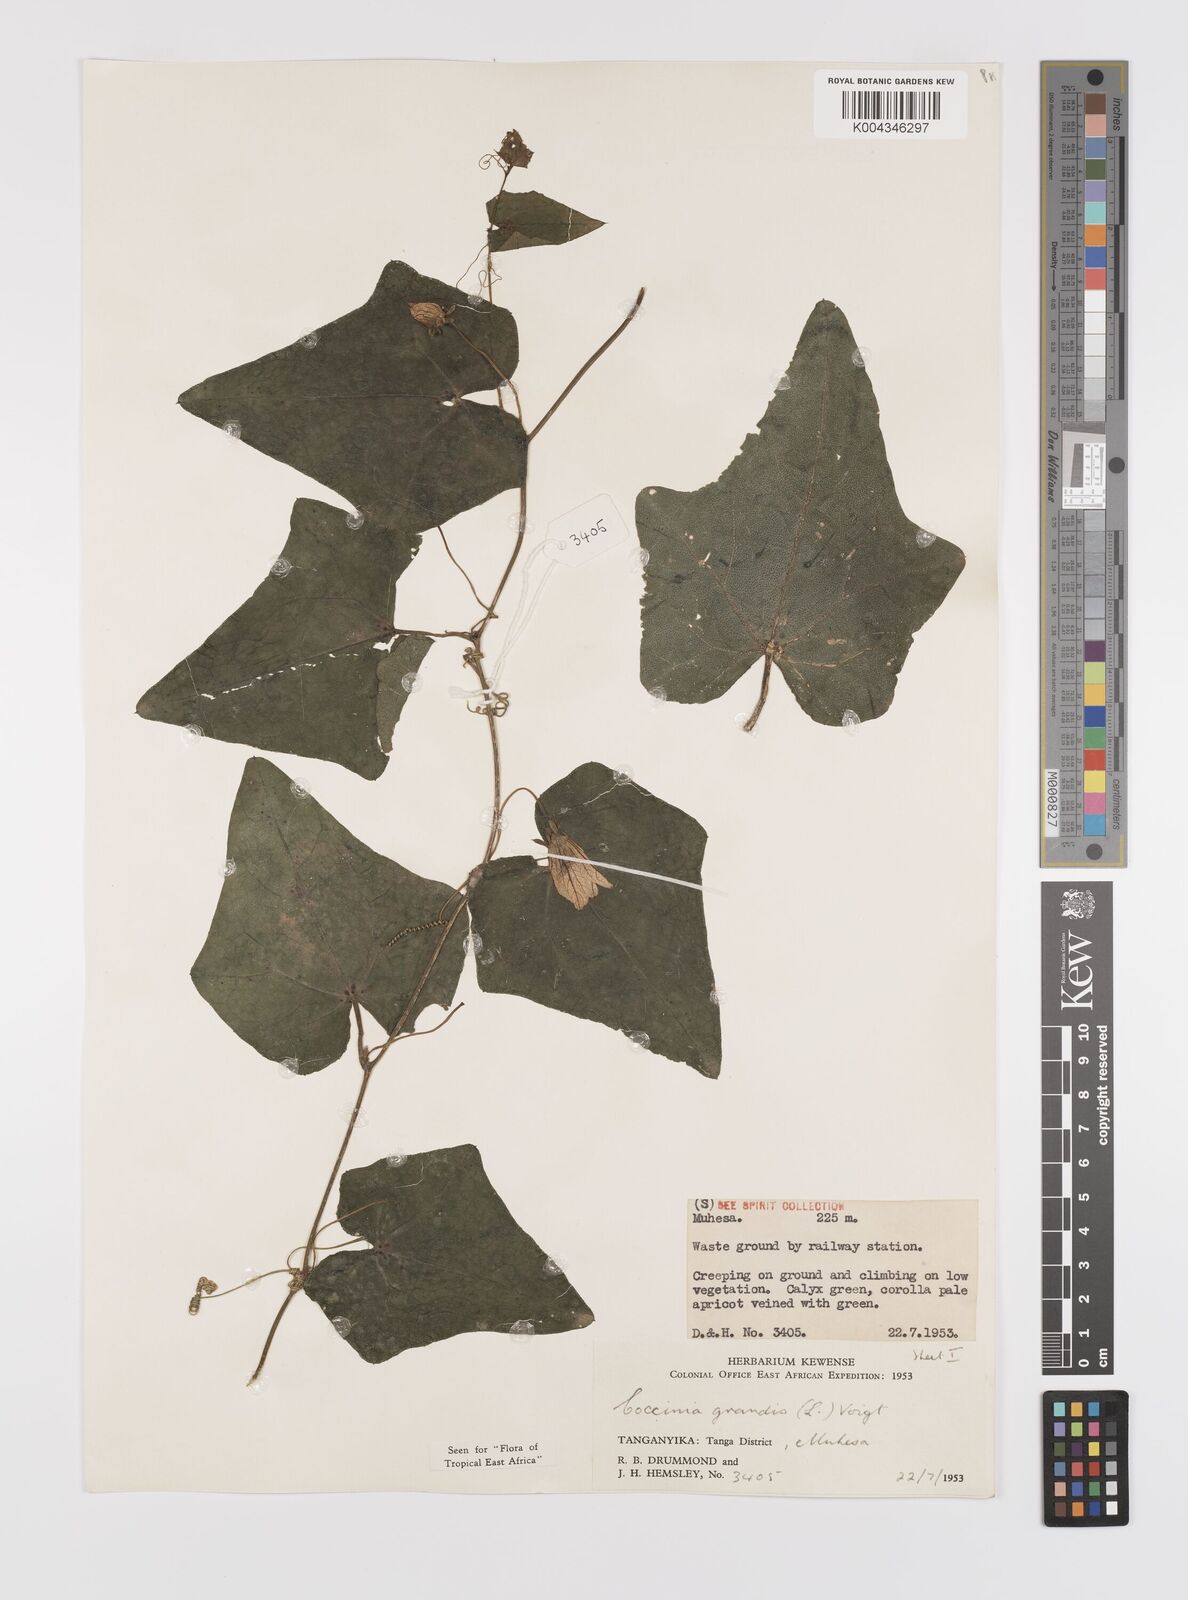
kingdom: Plantae
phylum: Tracheophyta
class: Magnoliopsida
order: Cucurbitales
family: Cucurbitaceae
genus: Coccinia
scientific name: Coccinia grandis
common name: Ivy gourd
